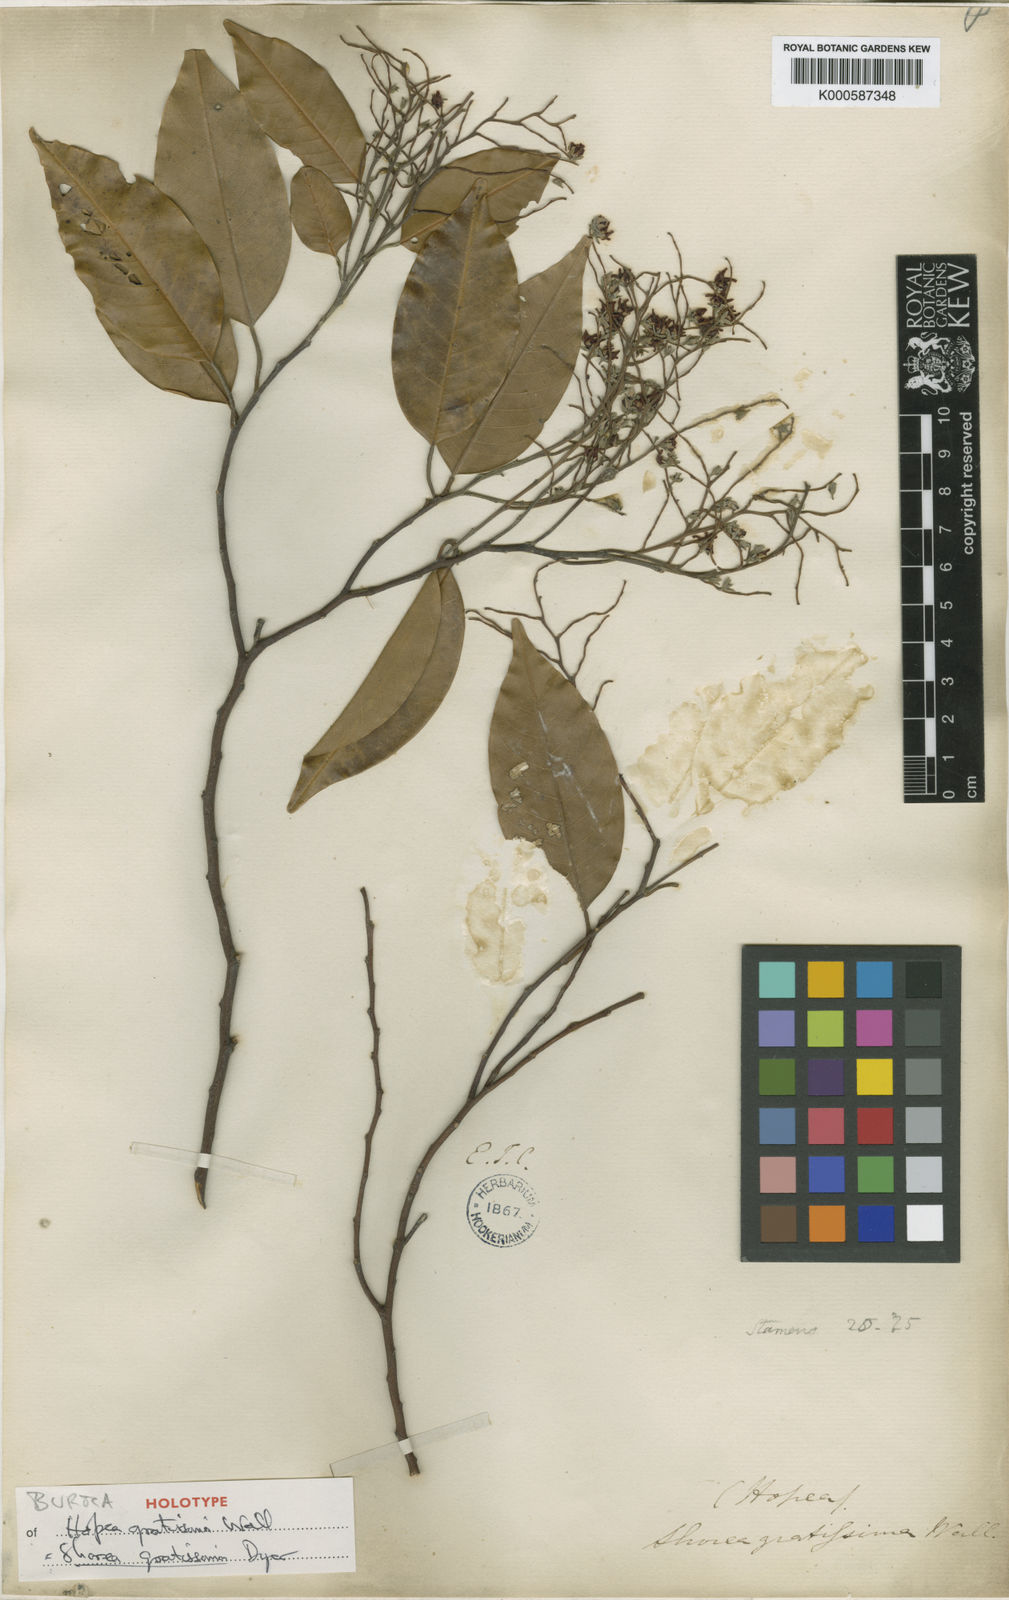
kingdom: Plantae
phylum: Tracheophyta
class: Magnoliopsida
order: Malvales
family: Dipterocarpaceae
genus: Anthoshorea
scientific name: Anthoshorea farinosa
